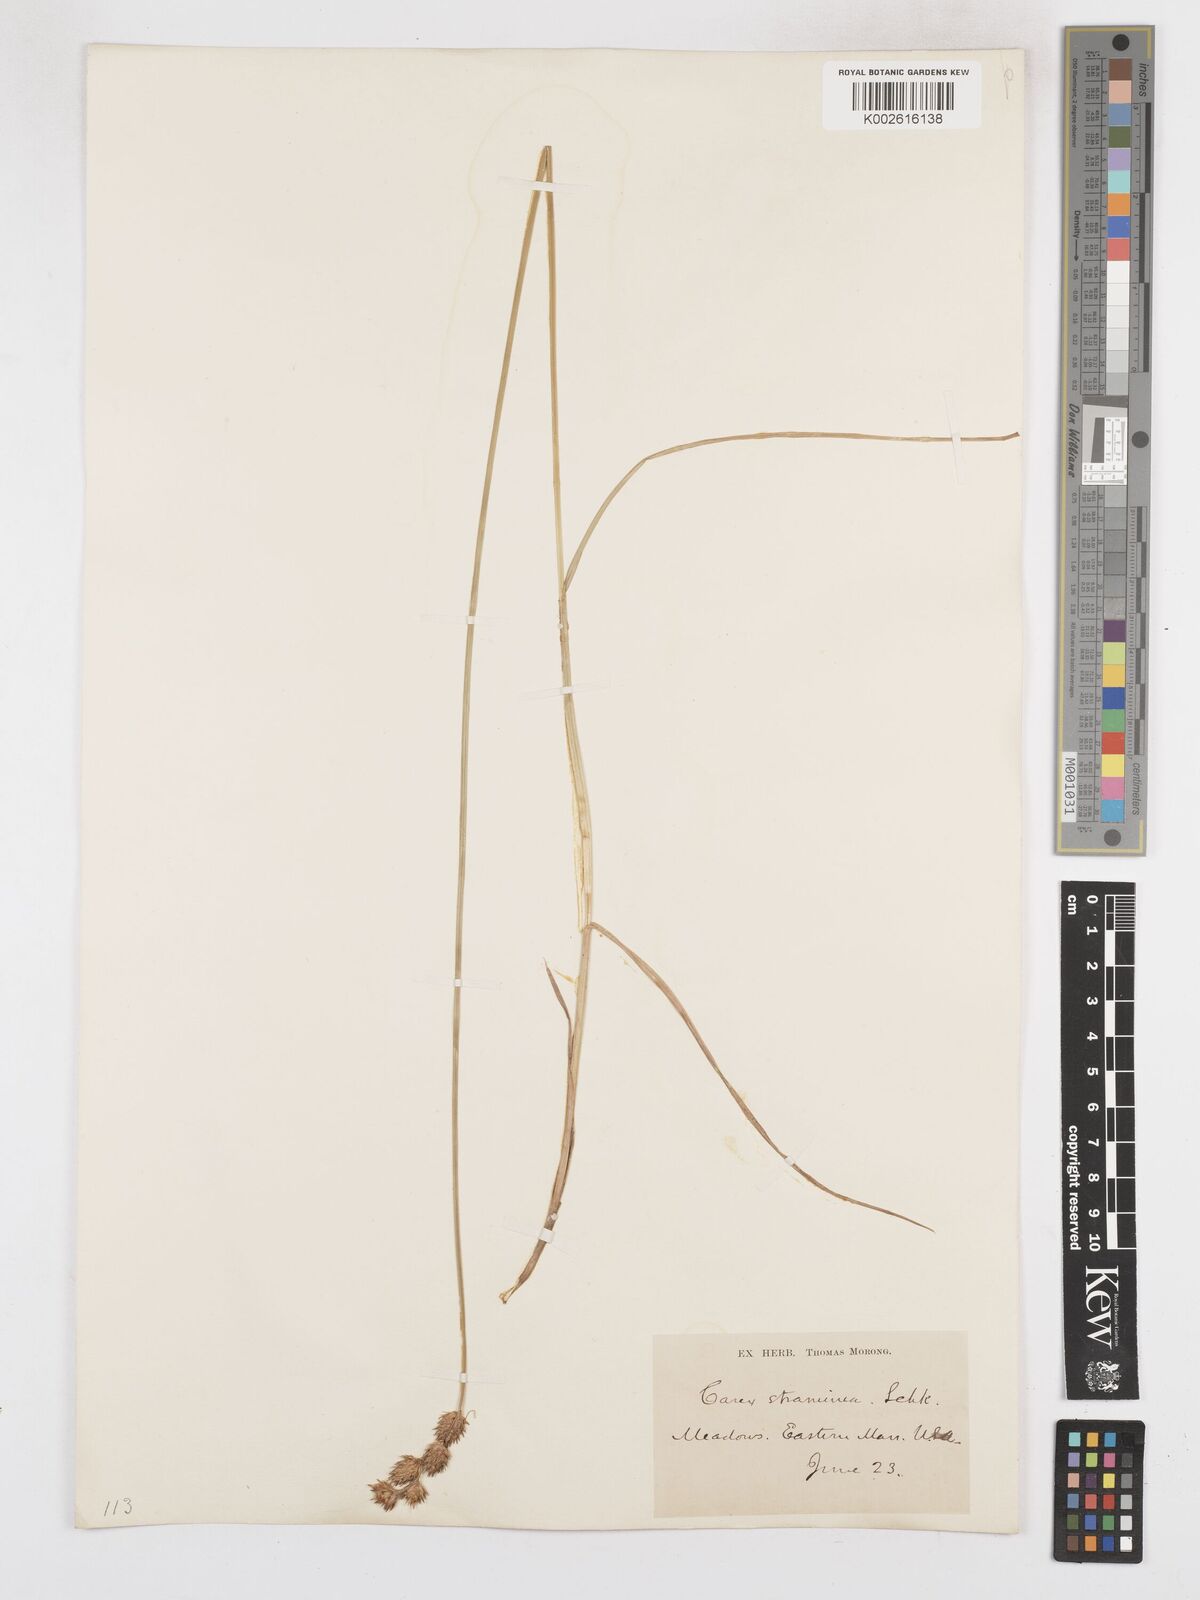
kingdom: Plantae
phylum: Tracheophyta
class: Liliopsida
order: Poales
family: Cyperaceae
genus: Carex
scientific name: Carex brevior
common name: Brevior sedge
